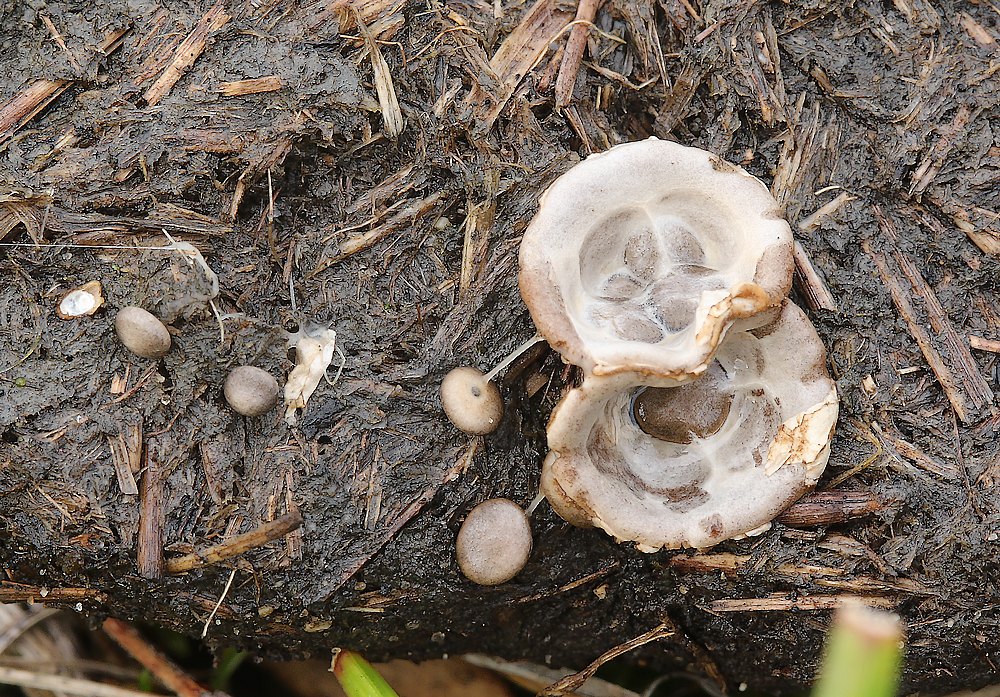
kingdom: Fungi
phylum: Basidiomycota
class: Agaricomycetes
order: Agaricales
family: Agaricaceae
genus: Cyathus
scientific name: Cyathus olla
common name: klokke-redesvamp
